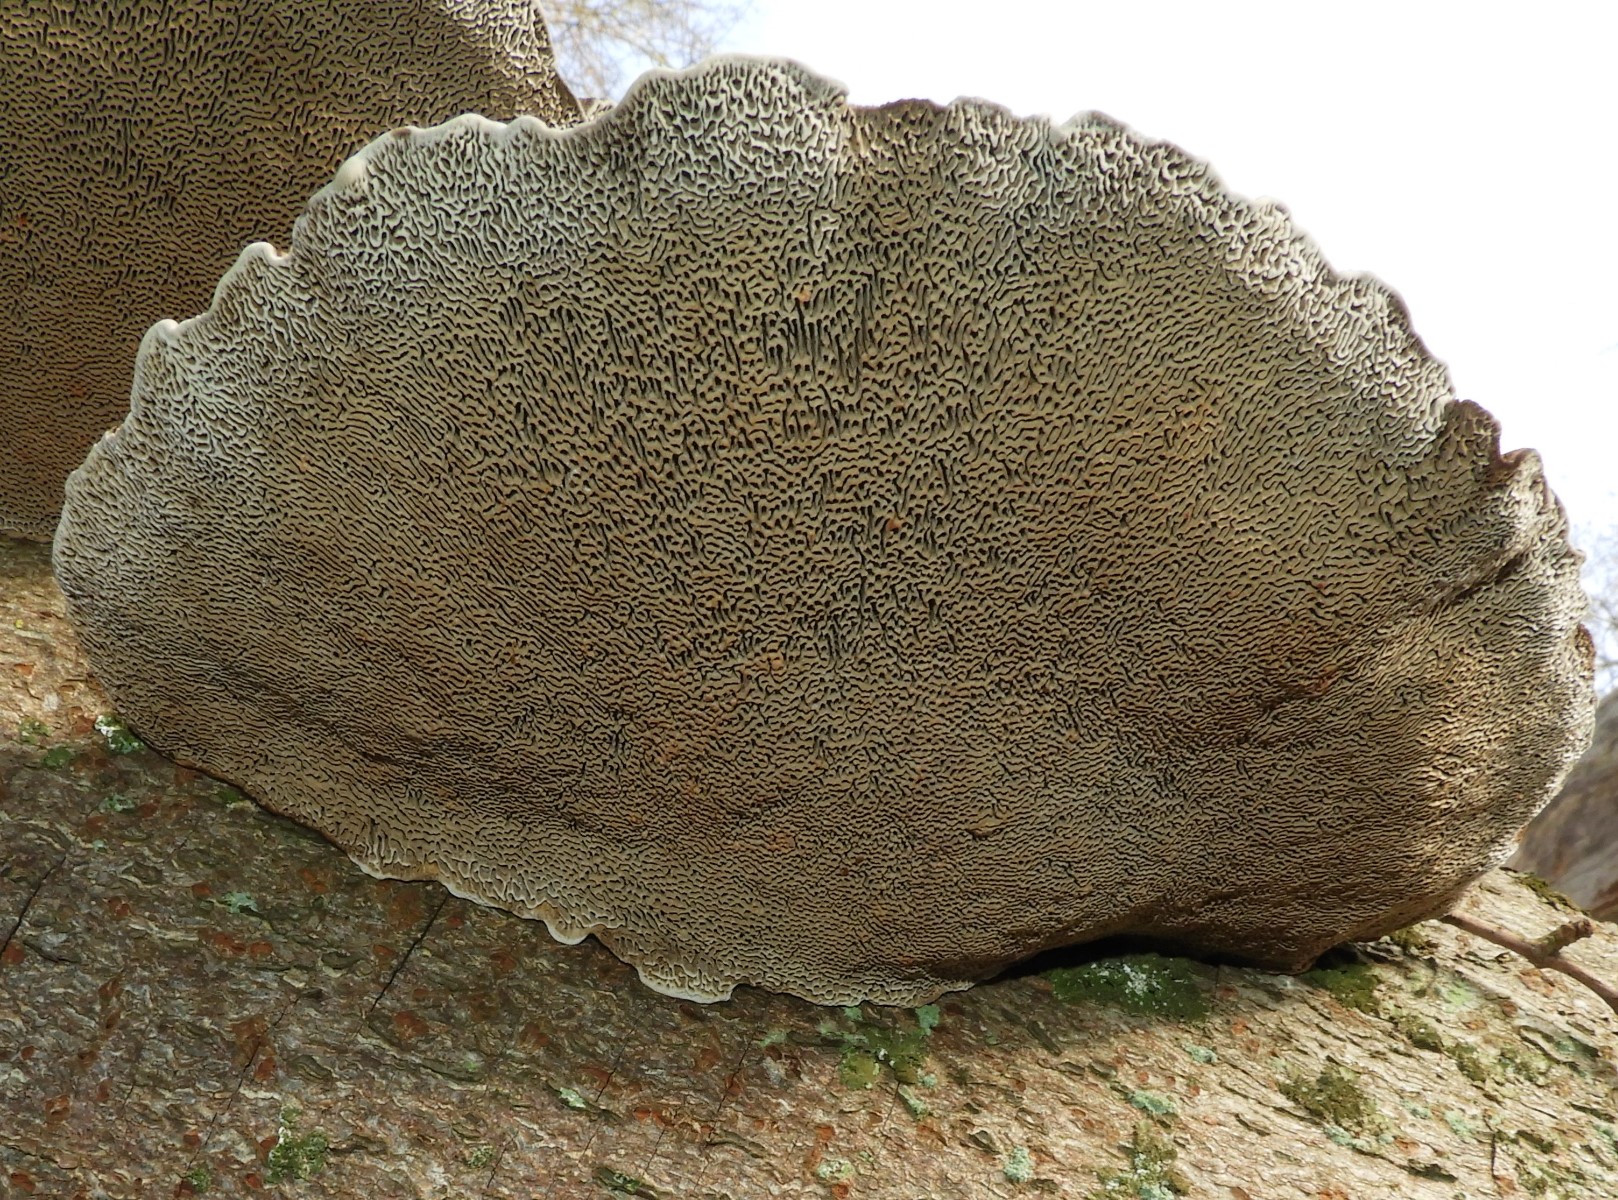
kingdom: Fungi
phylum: Basidiomycota
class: Agaricomycetes
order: Polyporales
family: Polyporaceae
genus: Daedaleopsis
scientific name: Daedaleopsis confragosa
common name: rødmende læderporesvamp
